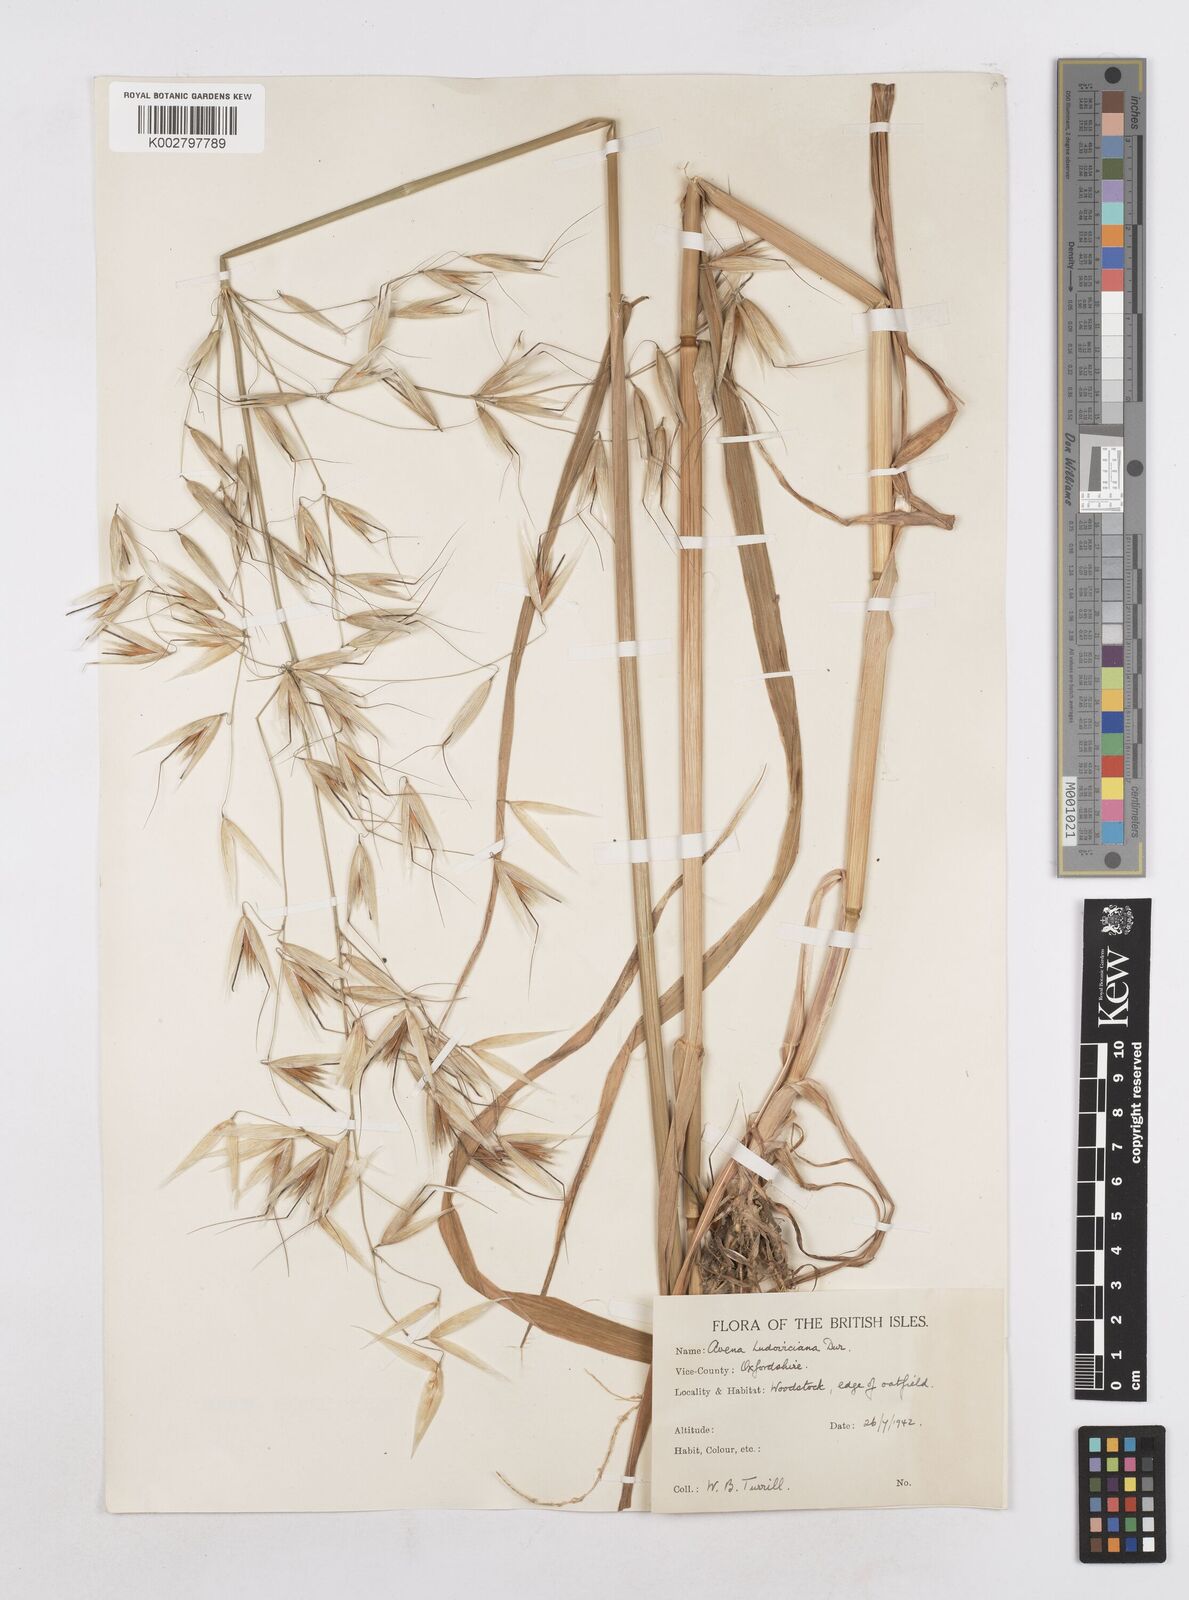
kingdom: Plantae
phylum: Tracheophyta
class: Liliopsida
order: Poales
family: Poaceae
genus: Avena
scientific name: Avena sterilis
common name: Animated oat
